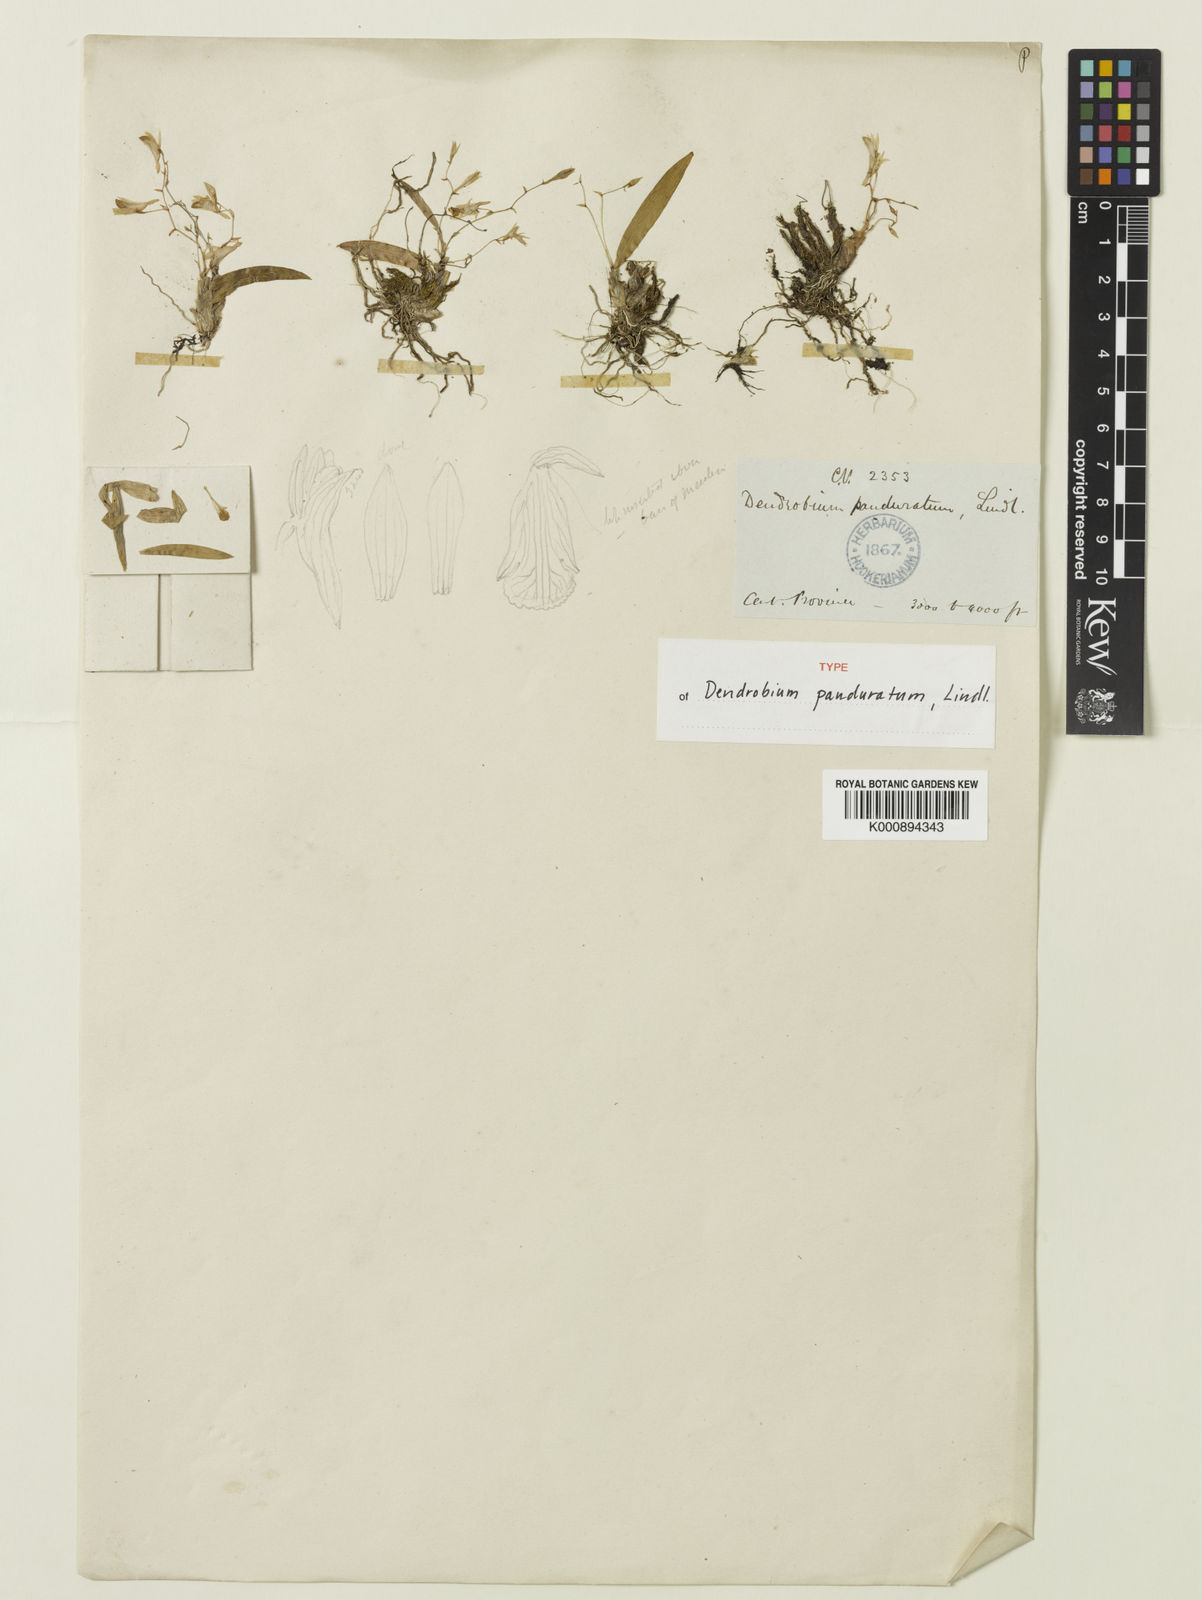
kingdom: Plantae
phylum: Tracheophyta
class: Liliopsida
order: Asparagales
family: Orchidaceae
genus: Dendrobium
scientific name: Dendrobium panduratum
